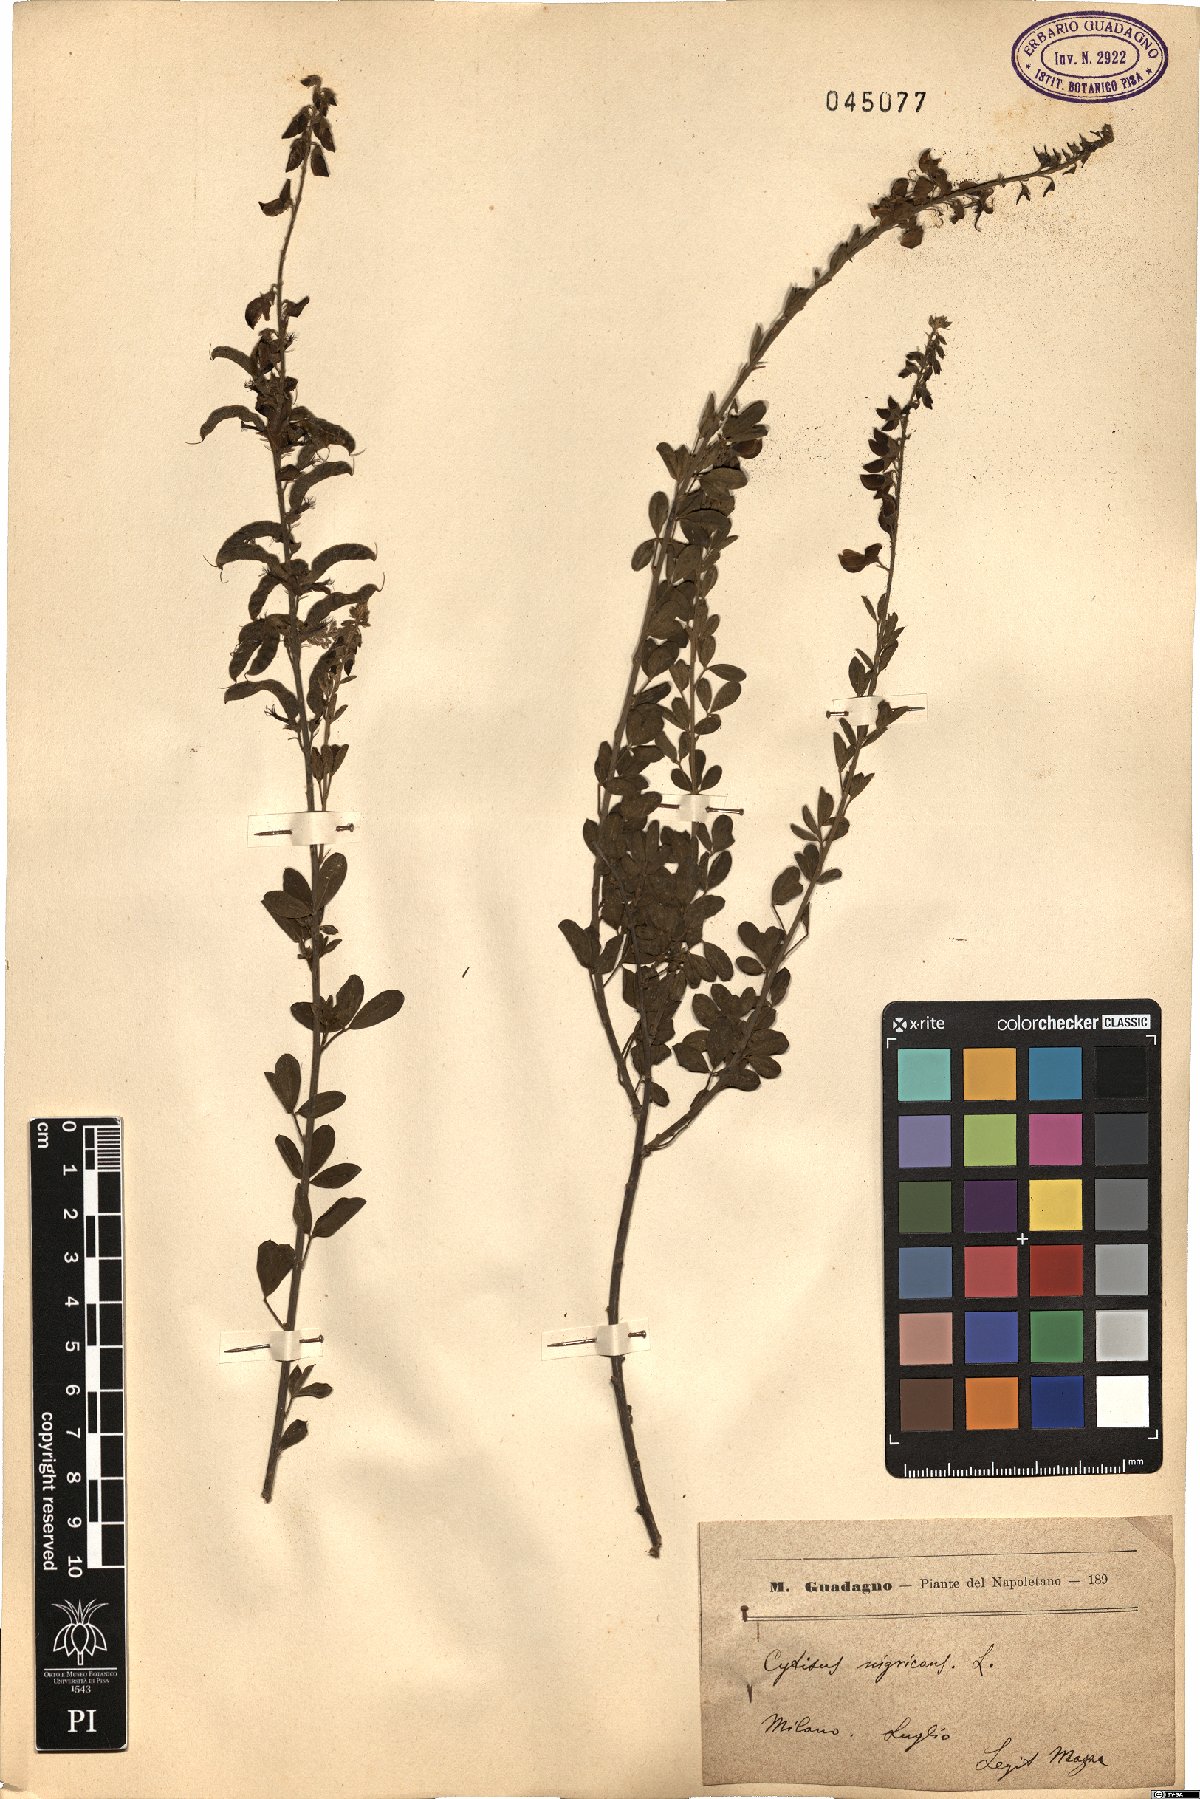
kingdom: Plantae
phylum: Tracheophyta
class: Magnoliopsida
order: Fabales
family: Fabaceae
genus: Cytisus
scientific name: Cytisus nigricans
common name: Black broom
